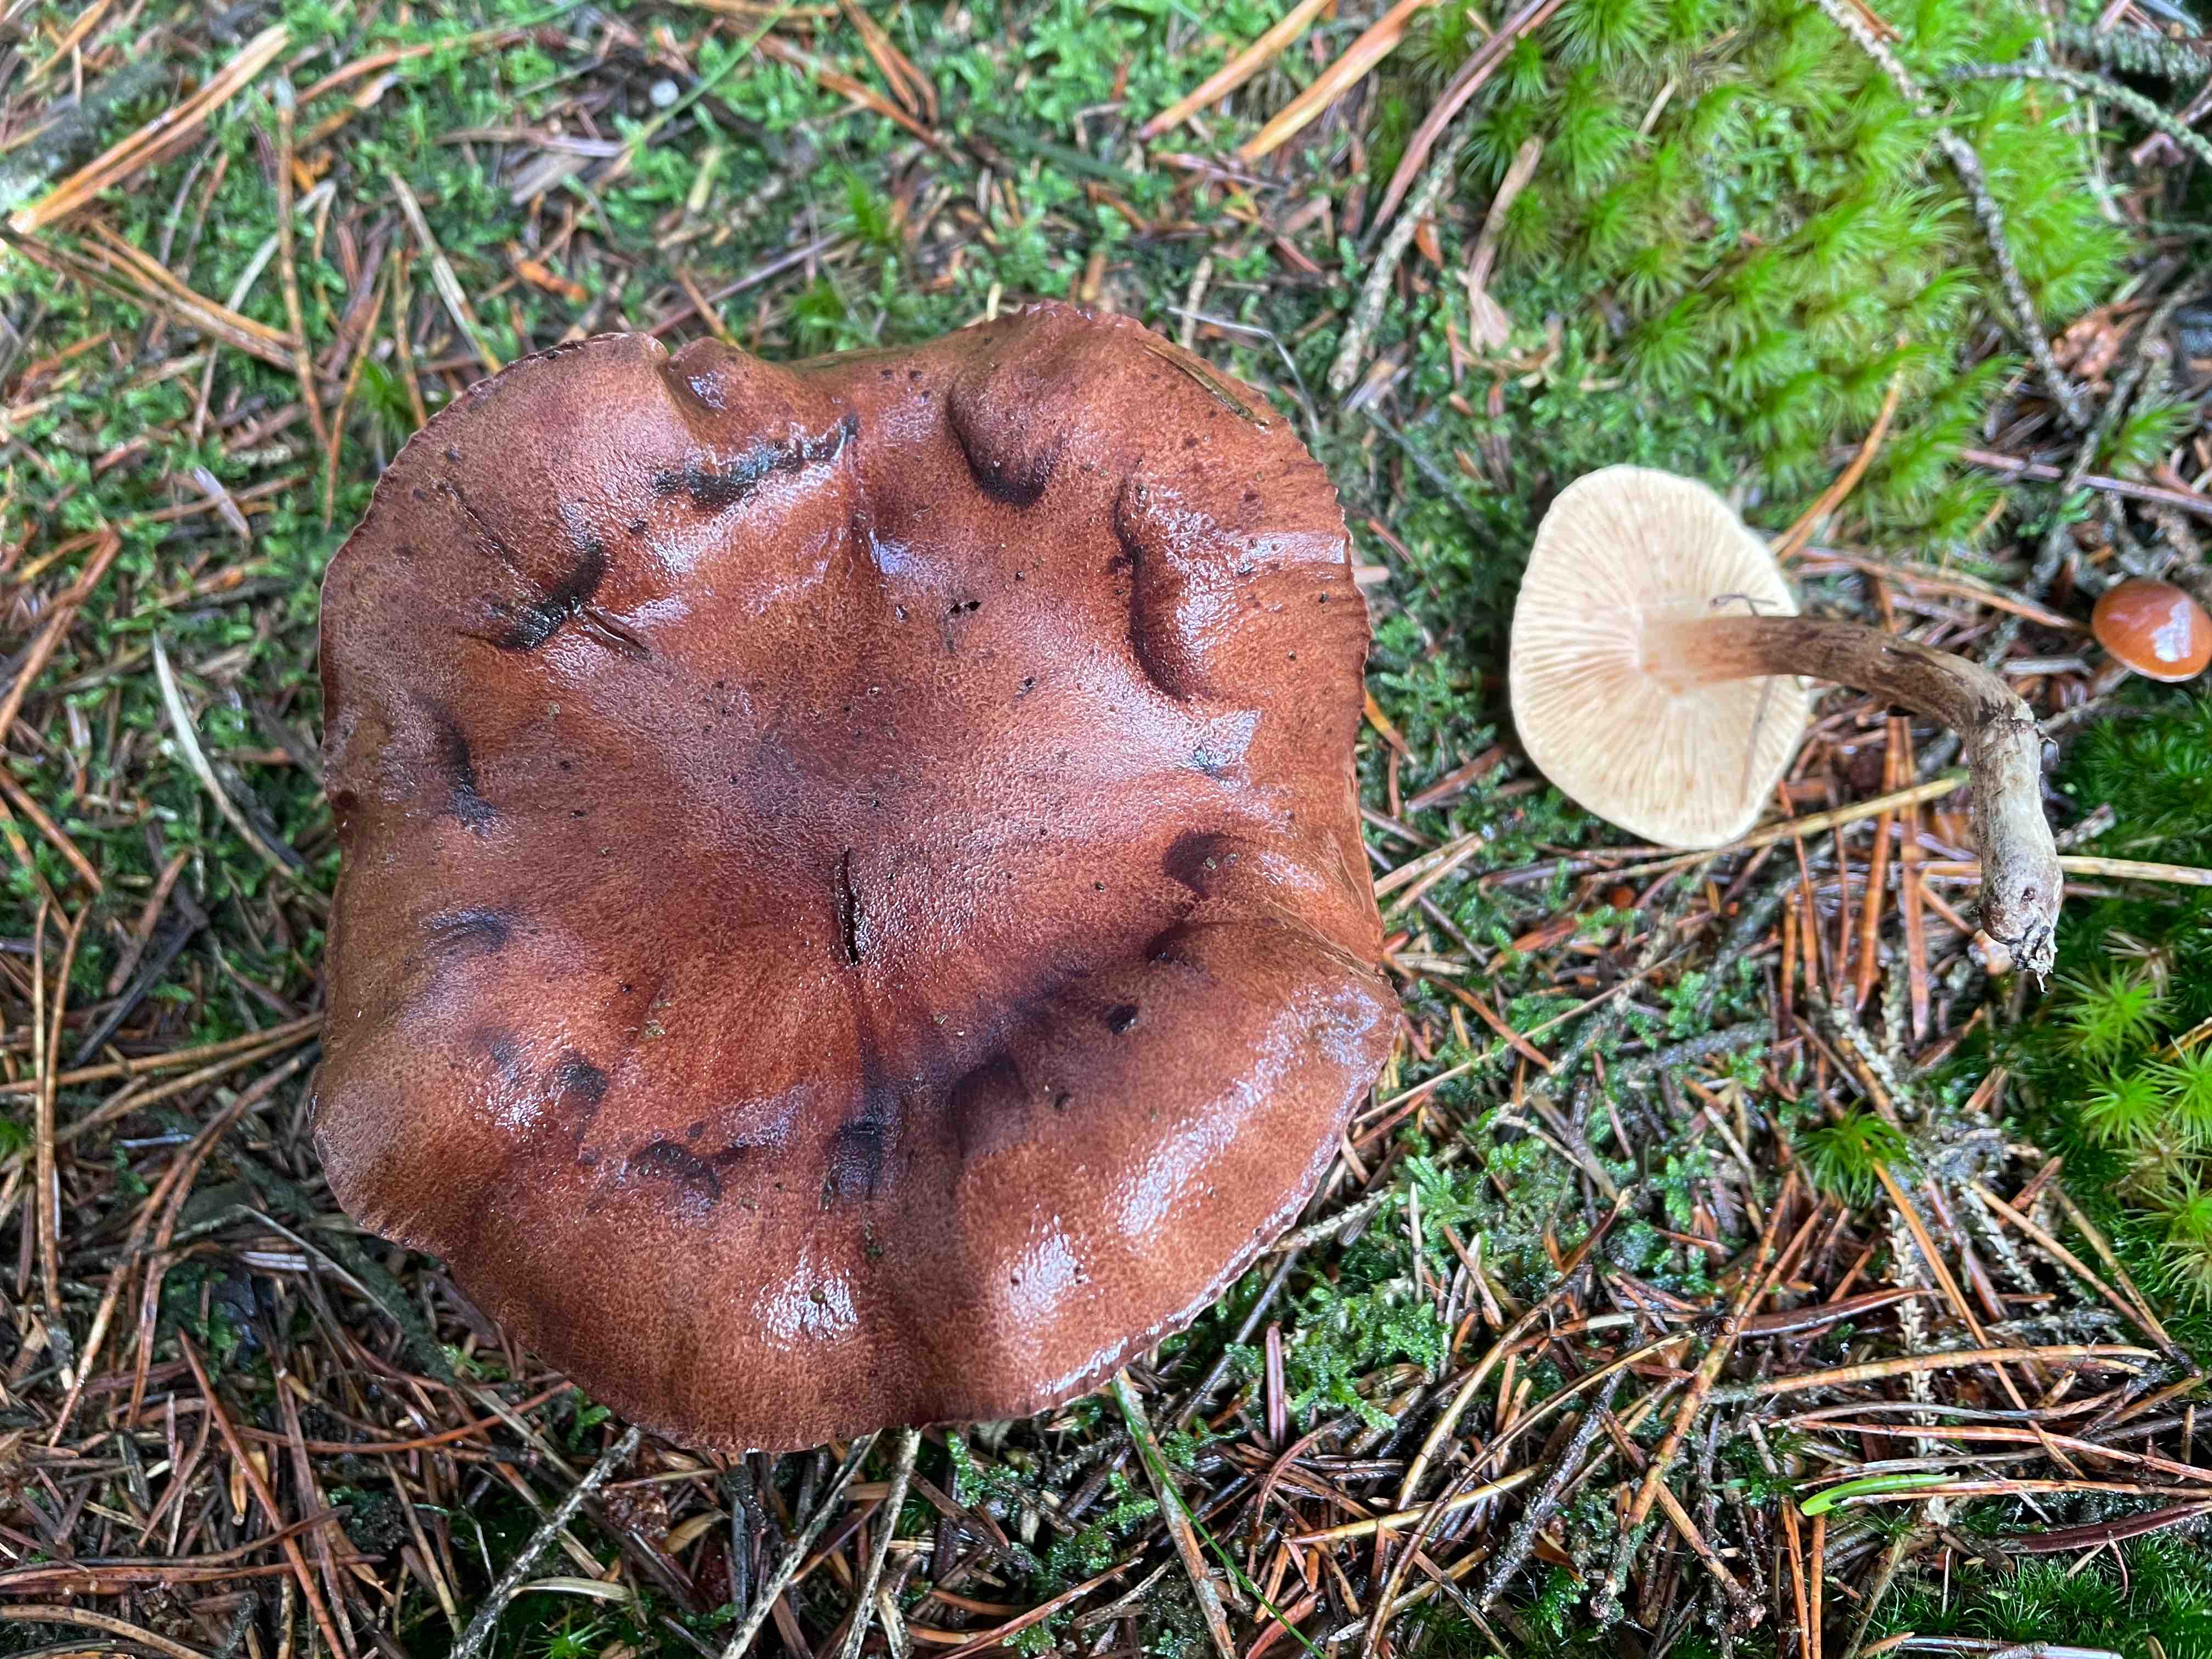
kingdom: Fungi
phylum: Basidiomycota
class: Agaricomycetes
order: Agaricales
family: Tricholomataceae
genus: Tricholoma
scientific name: Tricholoma albobrunneum
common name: kastanie-ridderhat
